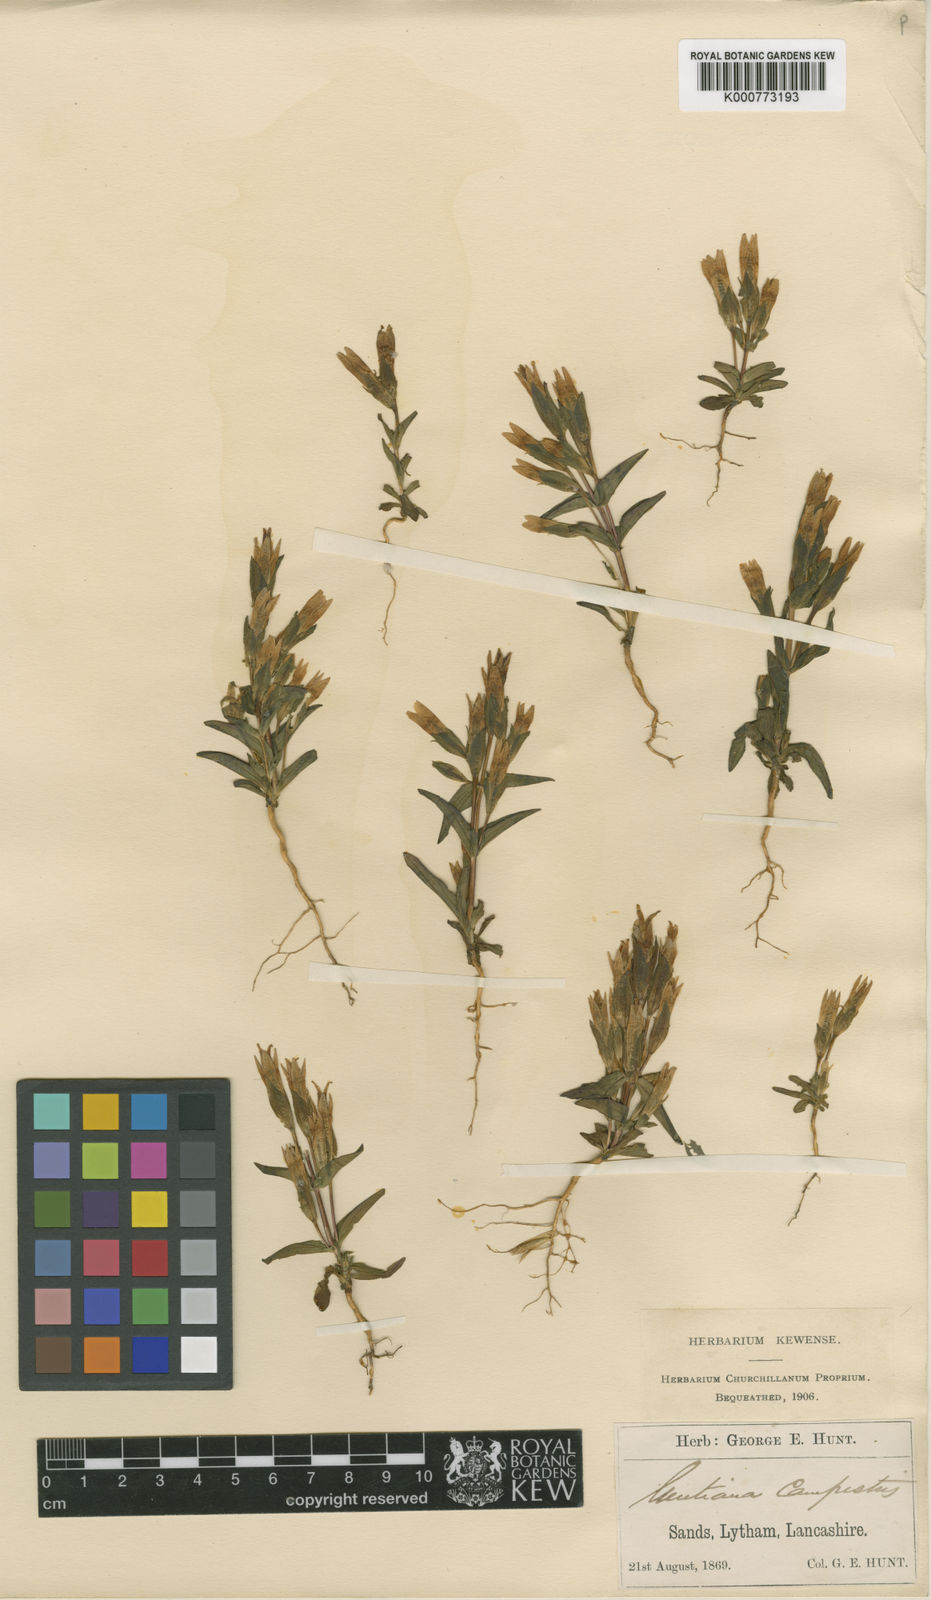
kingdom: Plantae
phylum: Tracheophyta
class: Magnoliopsida
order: Gentianales
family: Gentianaceae
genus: Gentianella
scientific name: Gentianella
